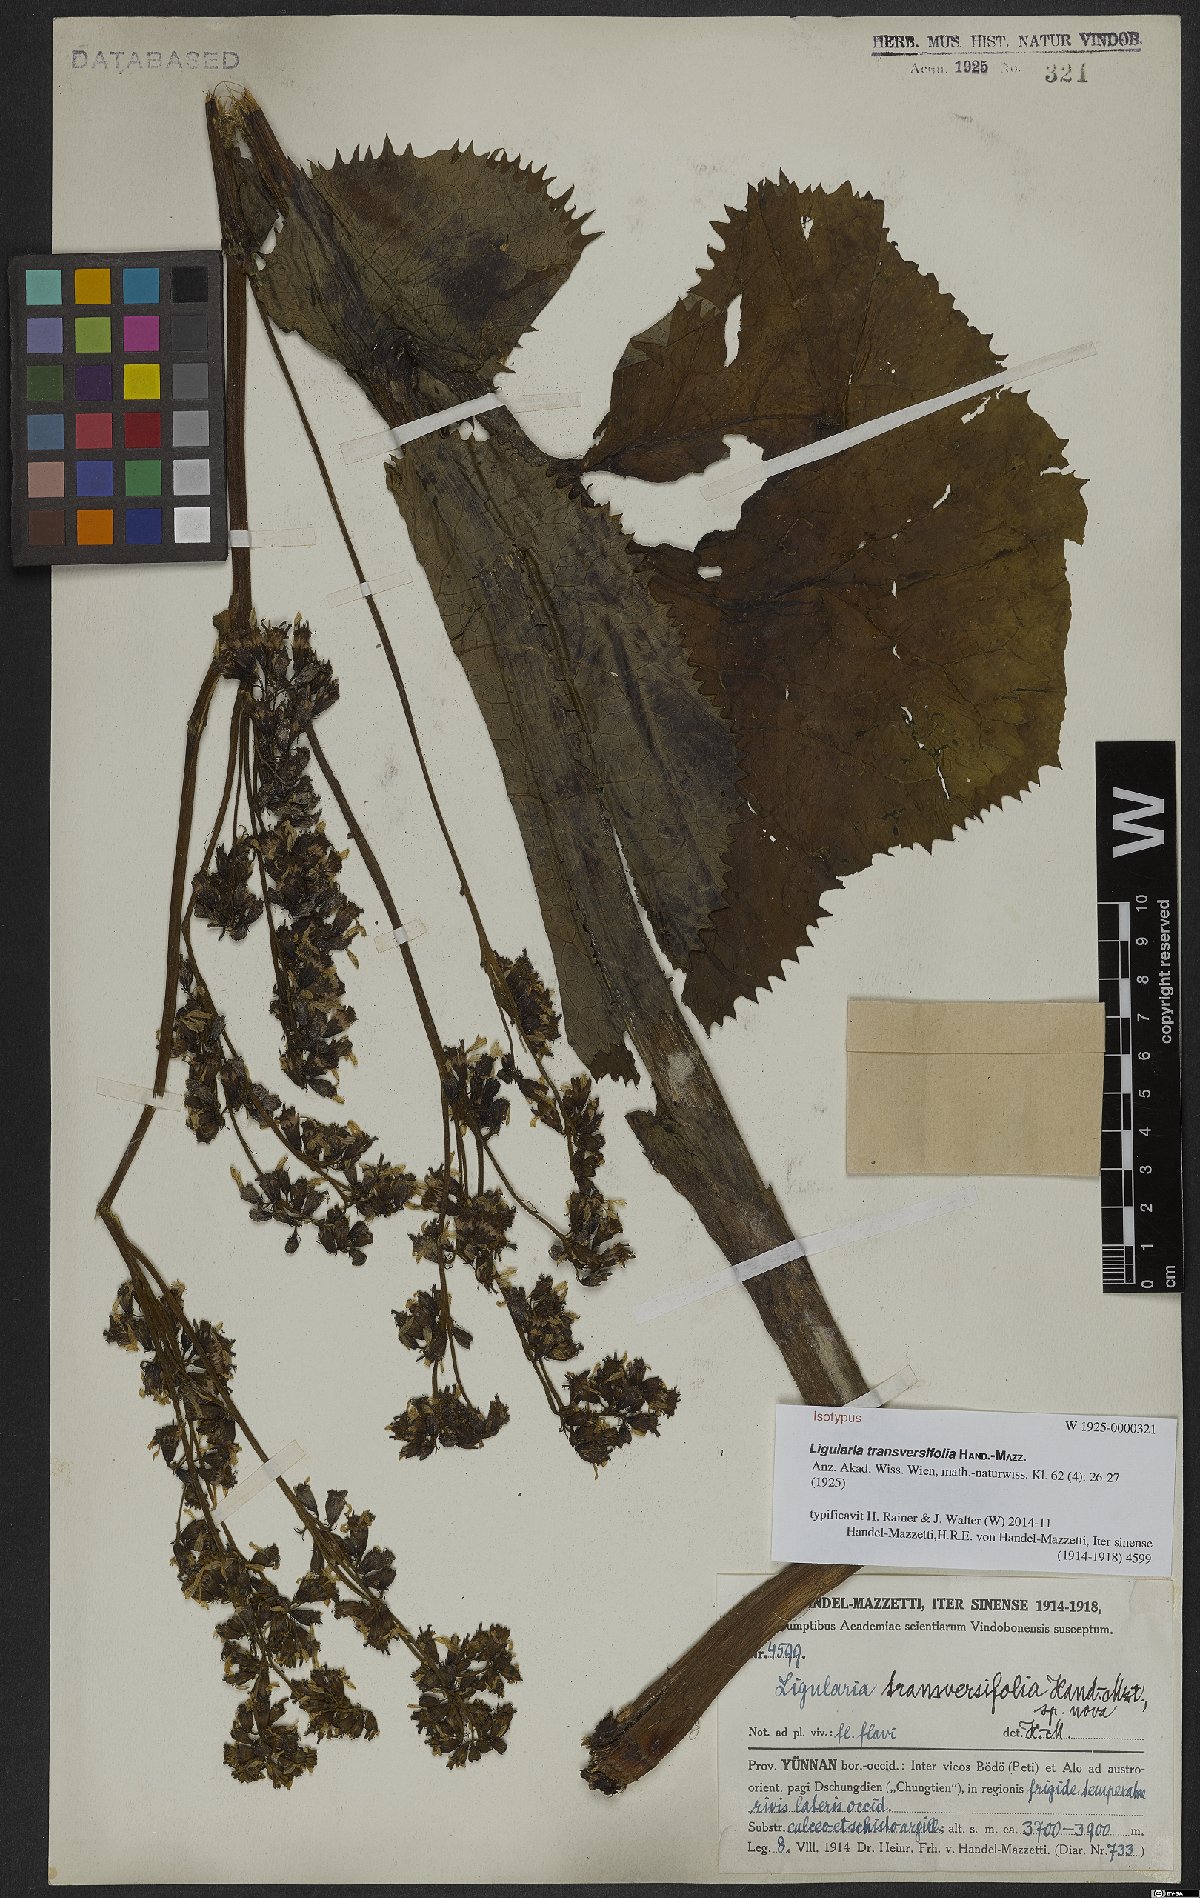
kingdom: Plantae
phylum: Tracheophyta
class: Magnoliopsida
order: Asterales
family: Asteraceae
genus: Ligularia
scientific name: Ligularia transversifolia
